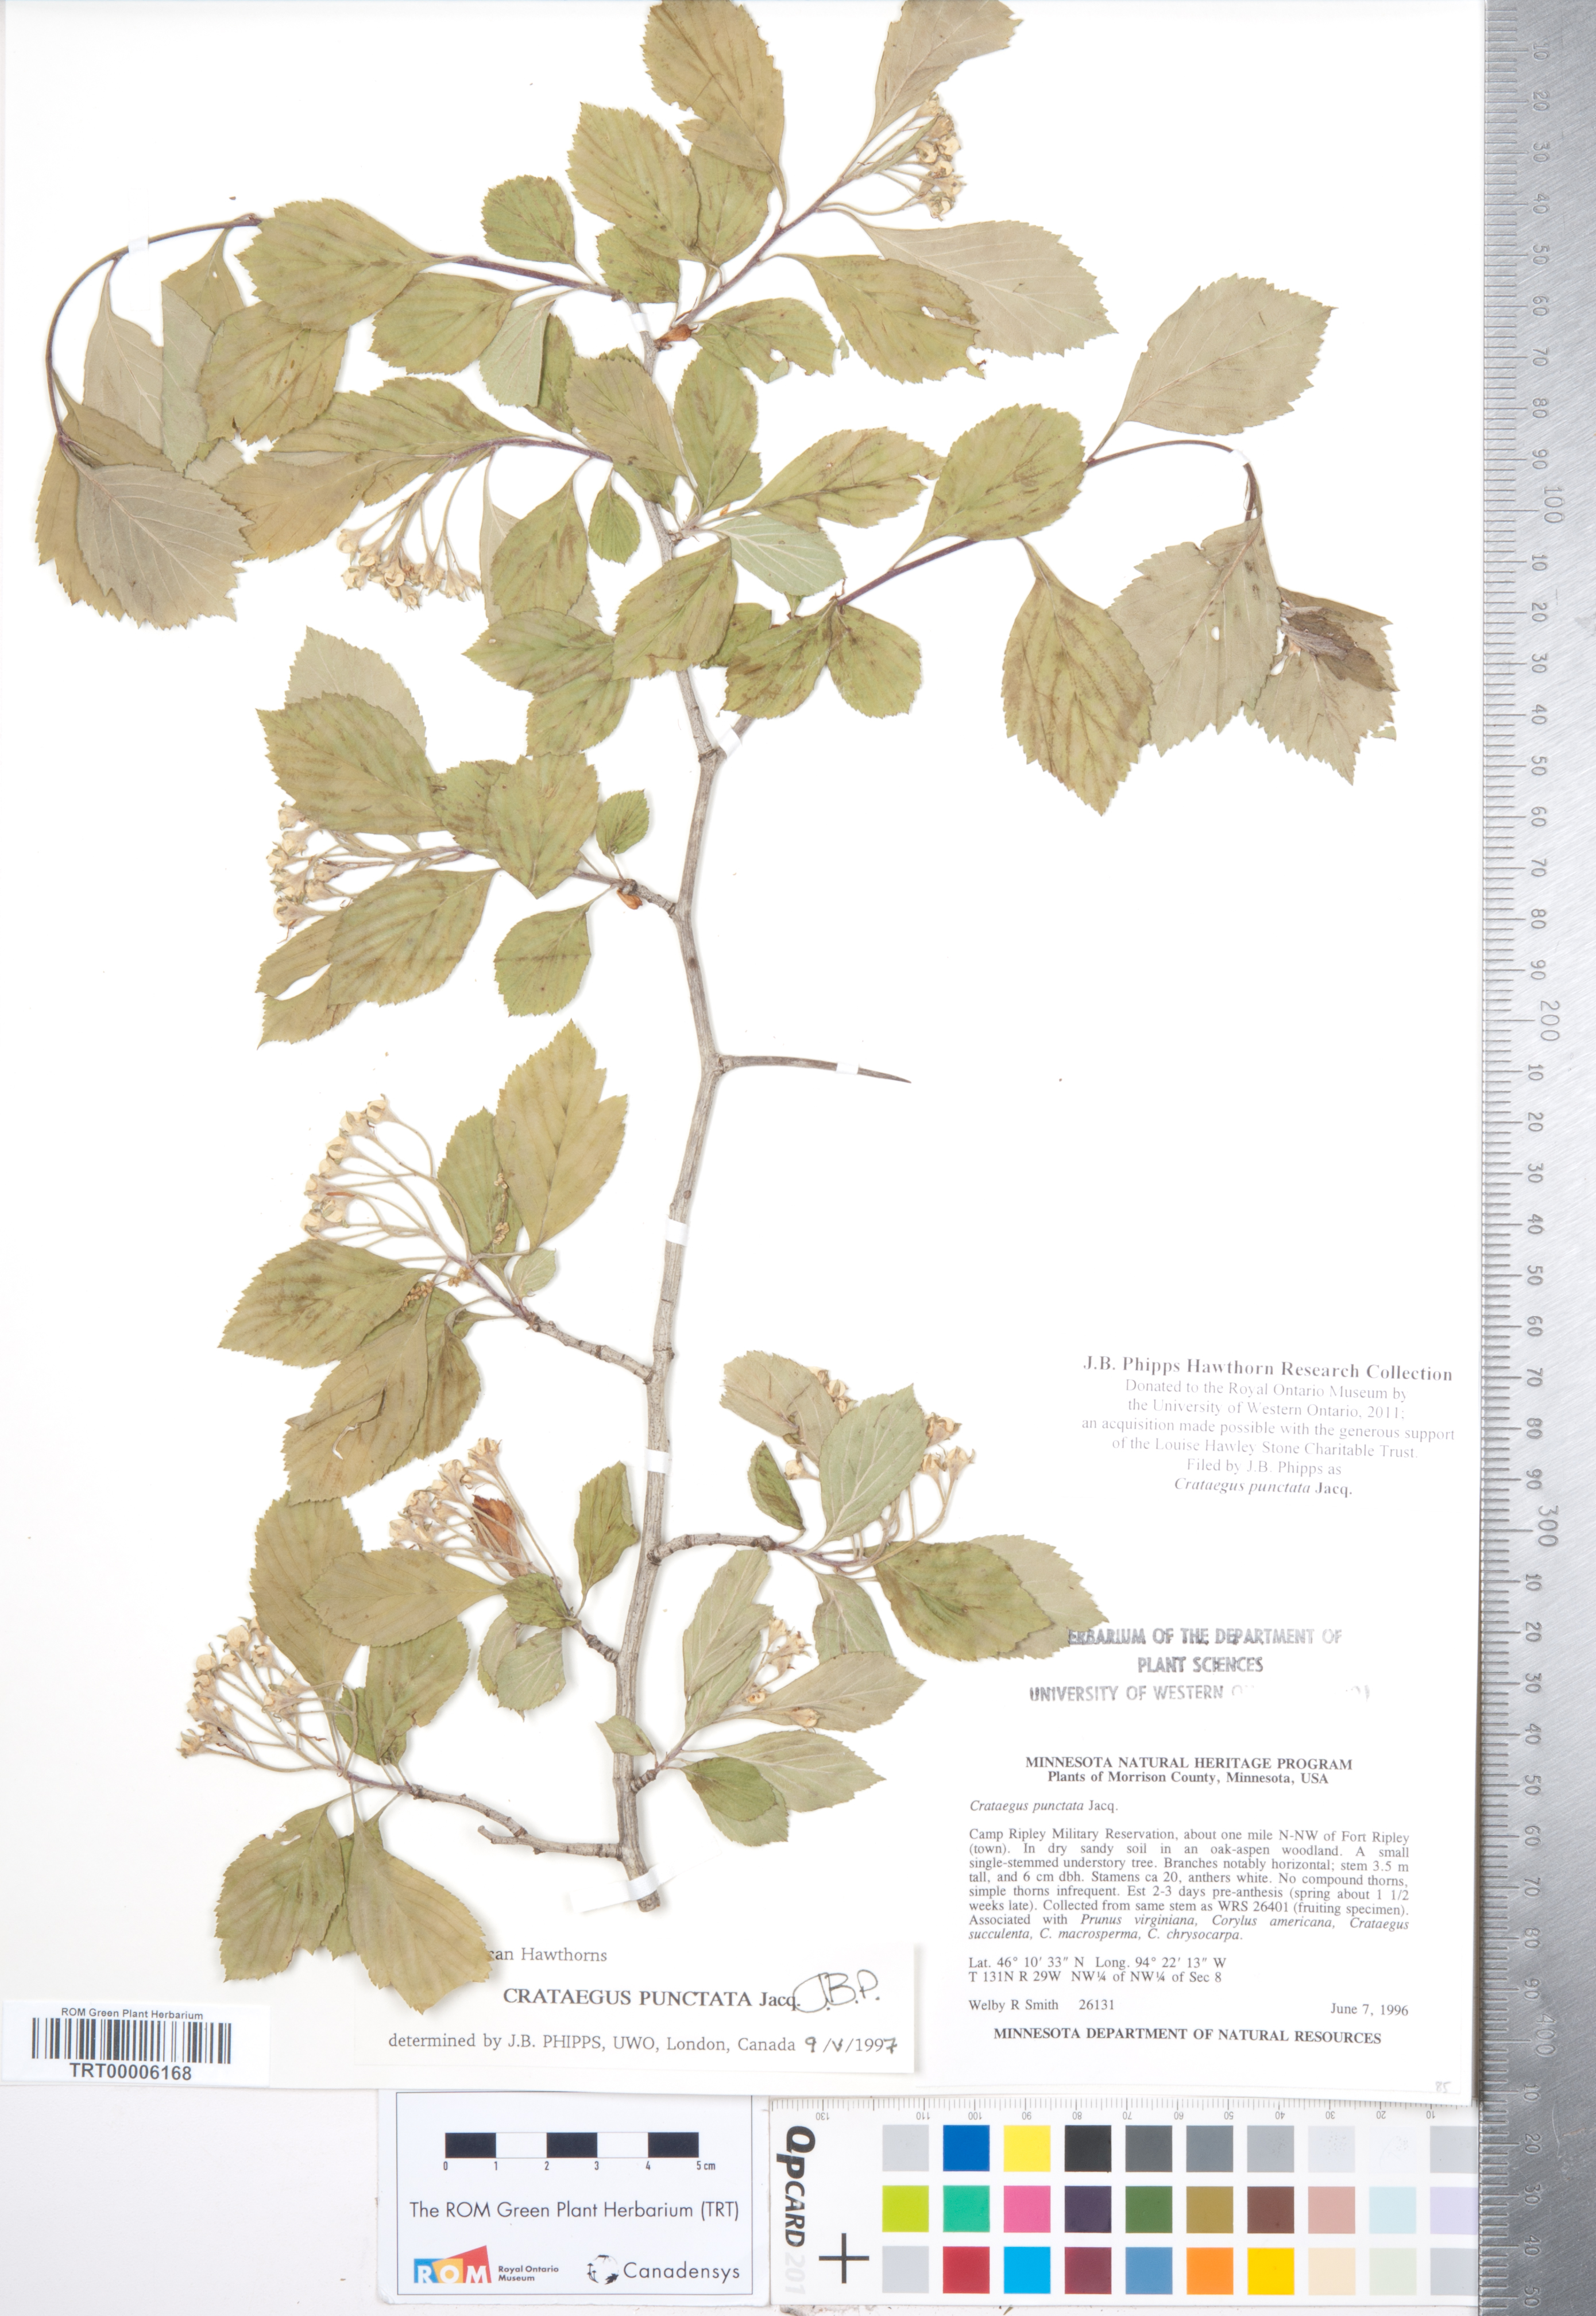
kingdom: Plantae
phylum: Tracheophyta
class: Magnoliopsida
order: Rosales
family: Rosaceae
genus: Crataegus
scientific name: Crataegus punctata
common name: Dotted hawthorn
